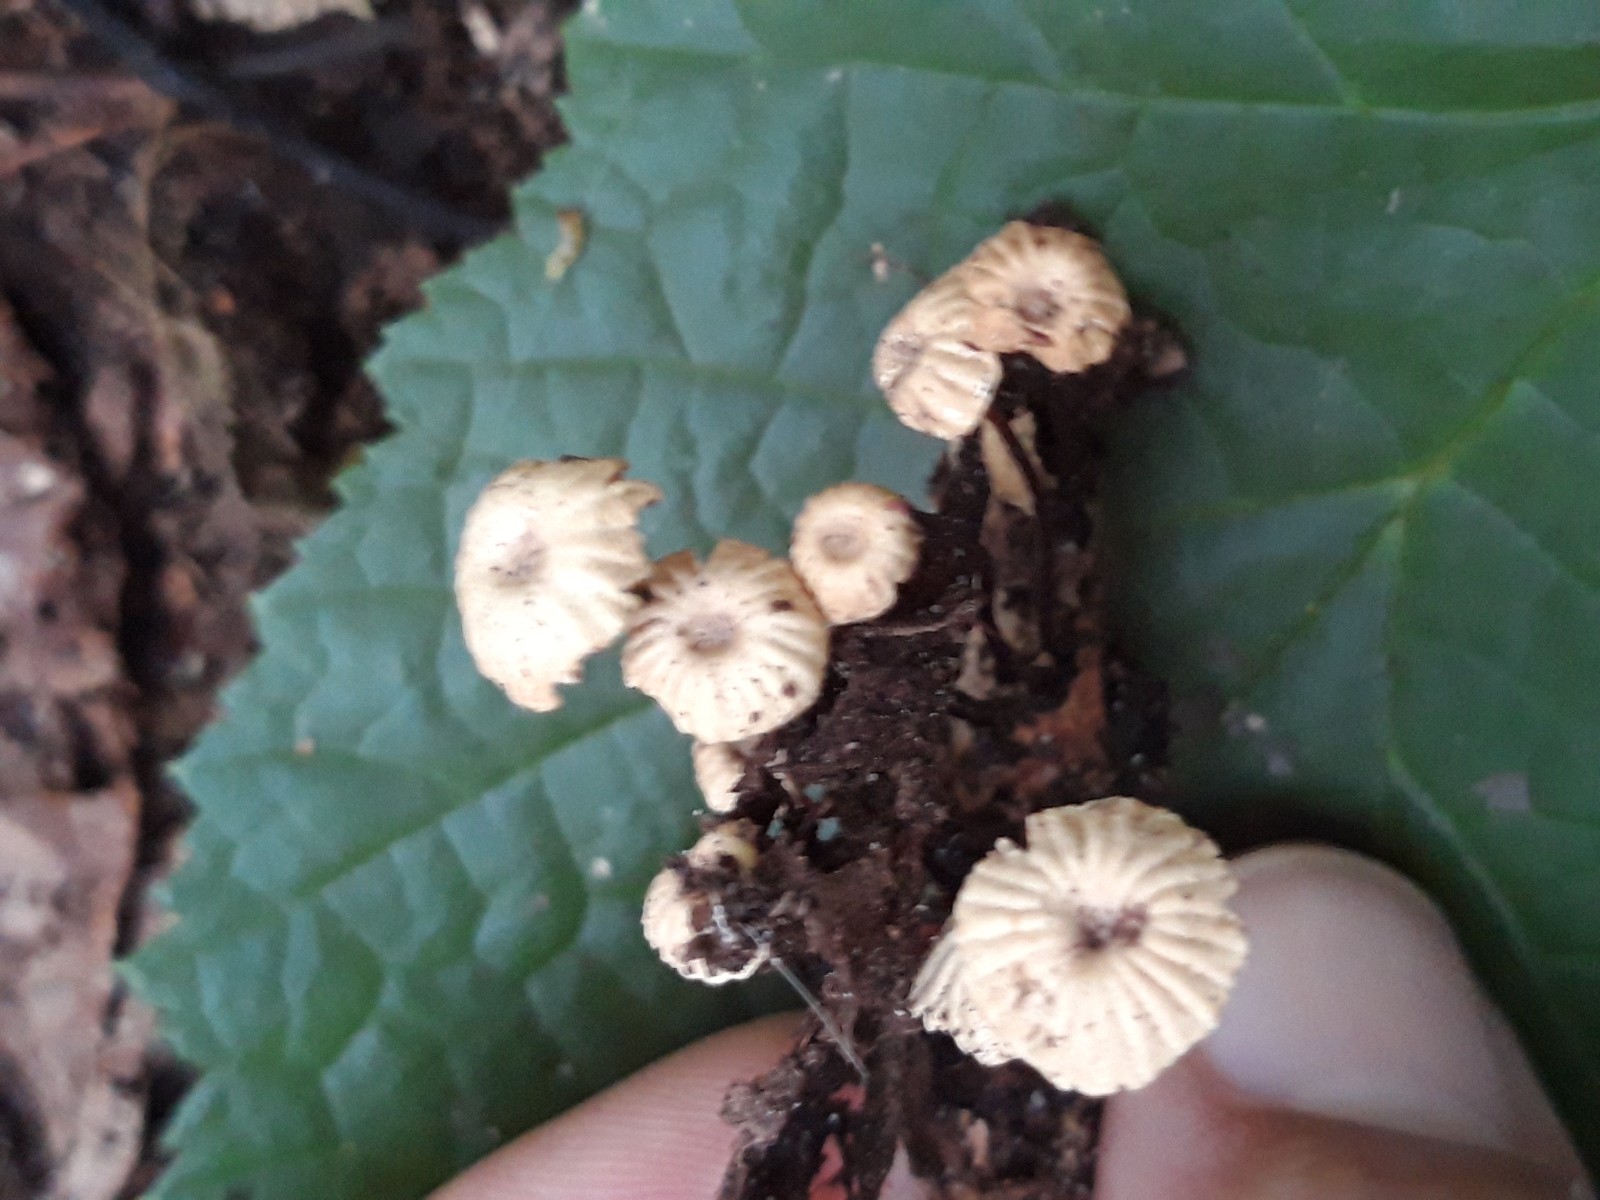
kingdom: Fungi
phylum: Basidiomycota
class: Agaricomycetes
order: Agaricales
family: Marasmiaceae
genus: Marasmius
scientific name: Marasmius rotula
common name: hjul-bruskhat
